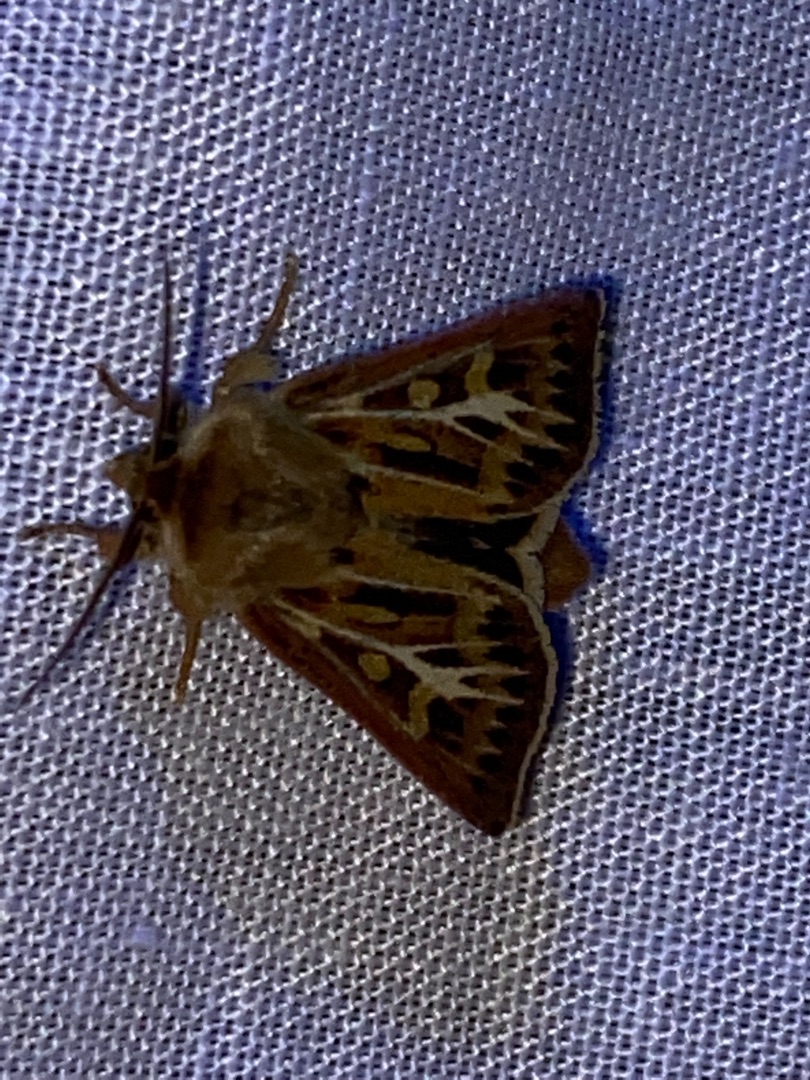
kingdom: Animalia
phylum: Arthropoda
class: Insecta
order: Lepidoptera
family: Noctuidae
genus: Cerapteryx
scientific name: Cerapteryx graminis
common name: Mosebunkeugle
